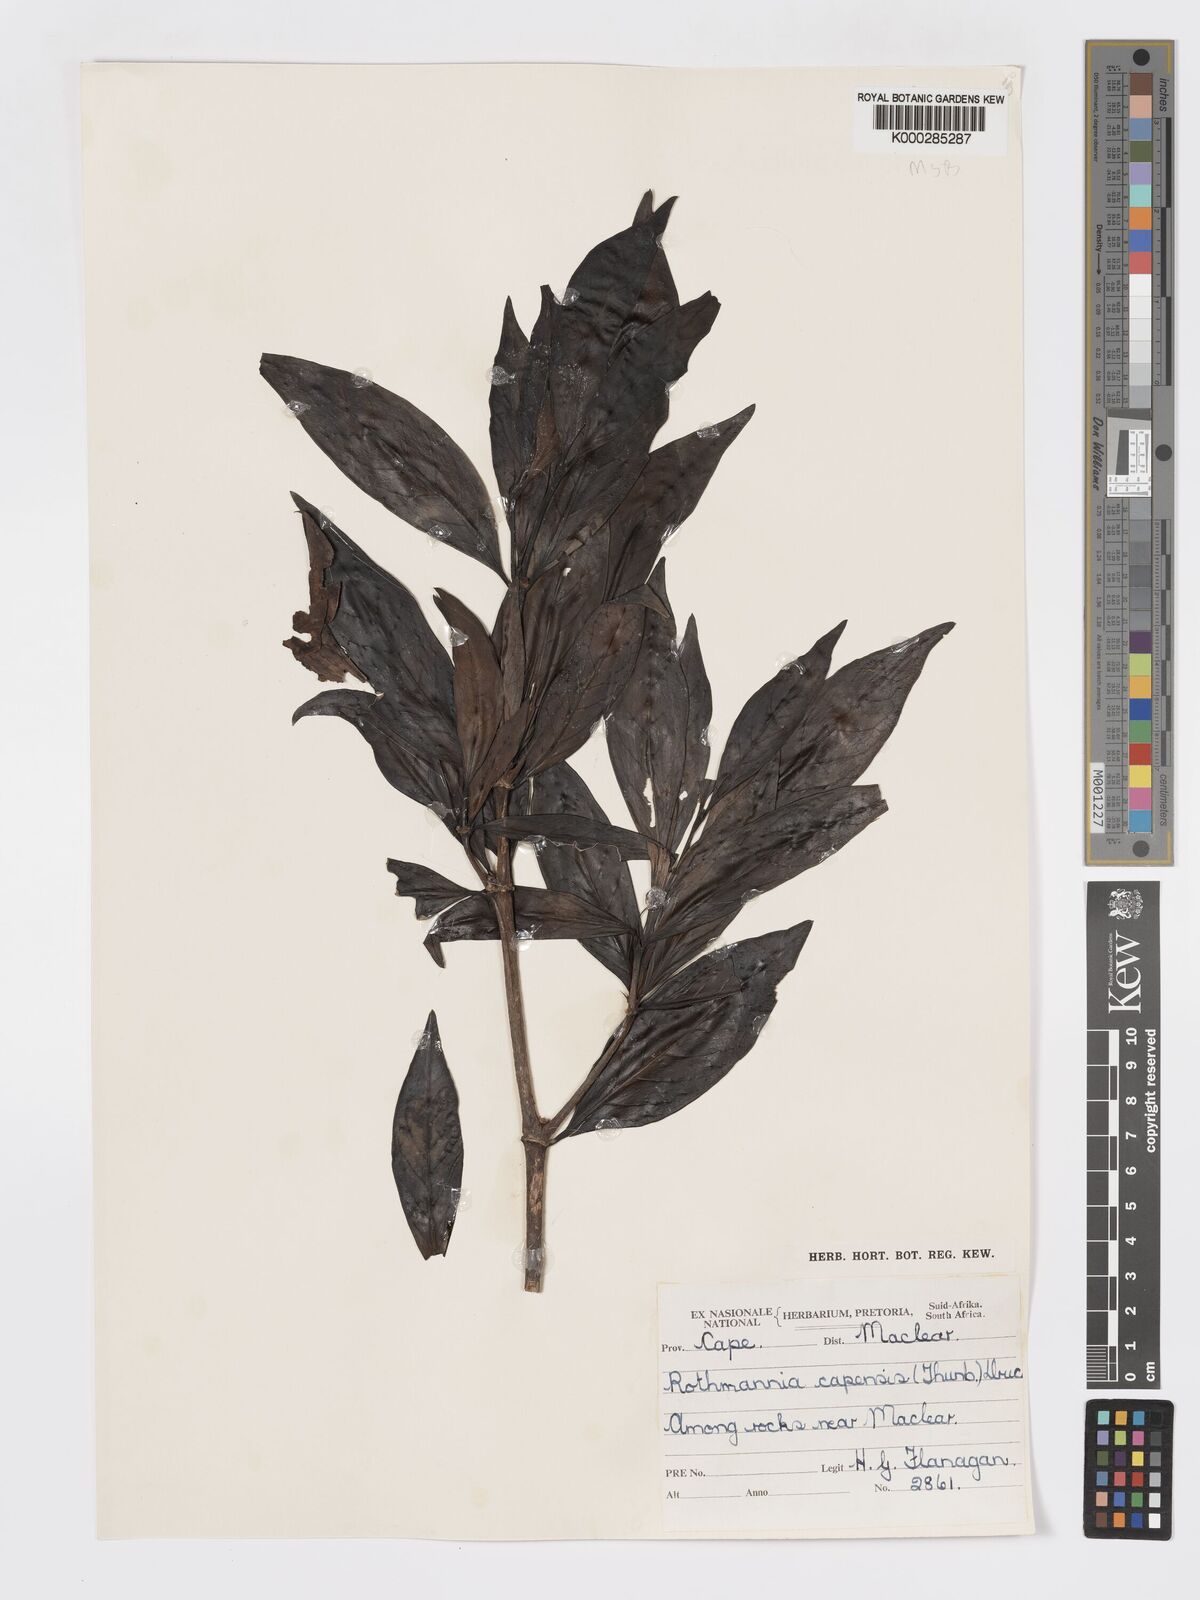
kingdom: Plantae
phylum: Tracheophyta
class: Magnoliopsida
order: Gentianales
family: Rubiaceae
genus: Rothmannia
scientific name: Rothmannia capensis
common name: Cape gardenia
